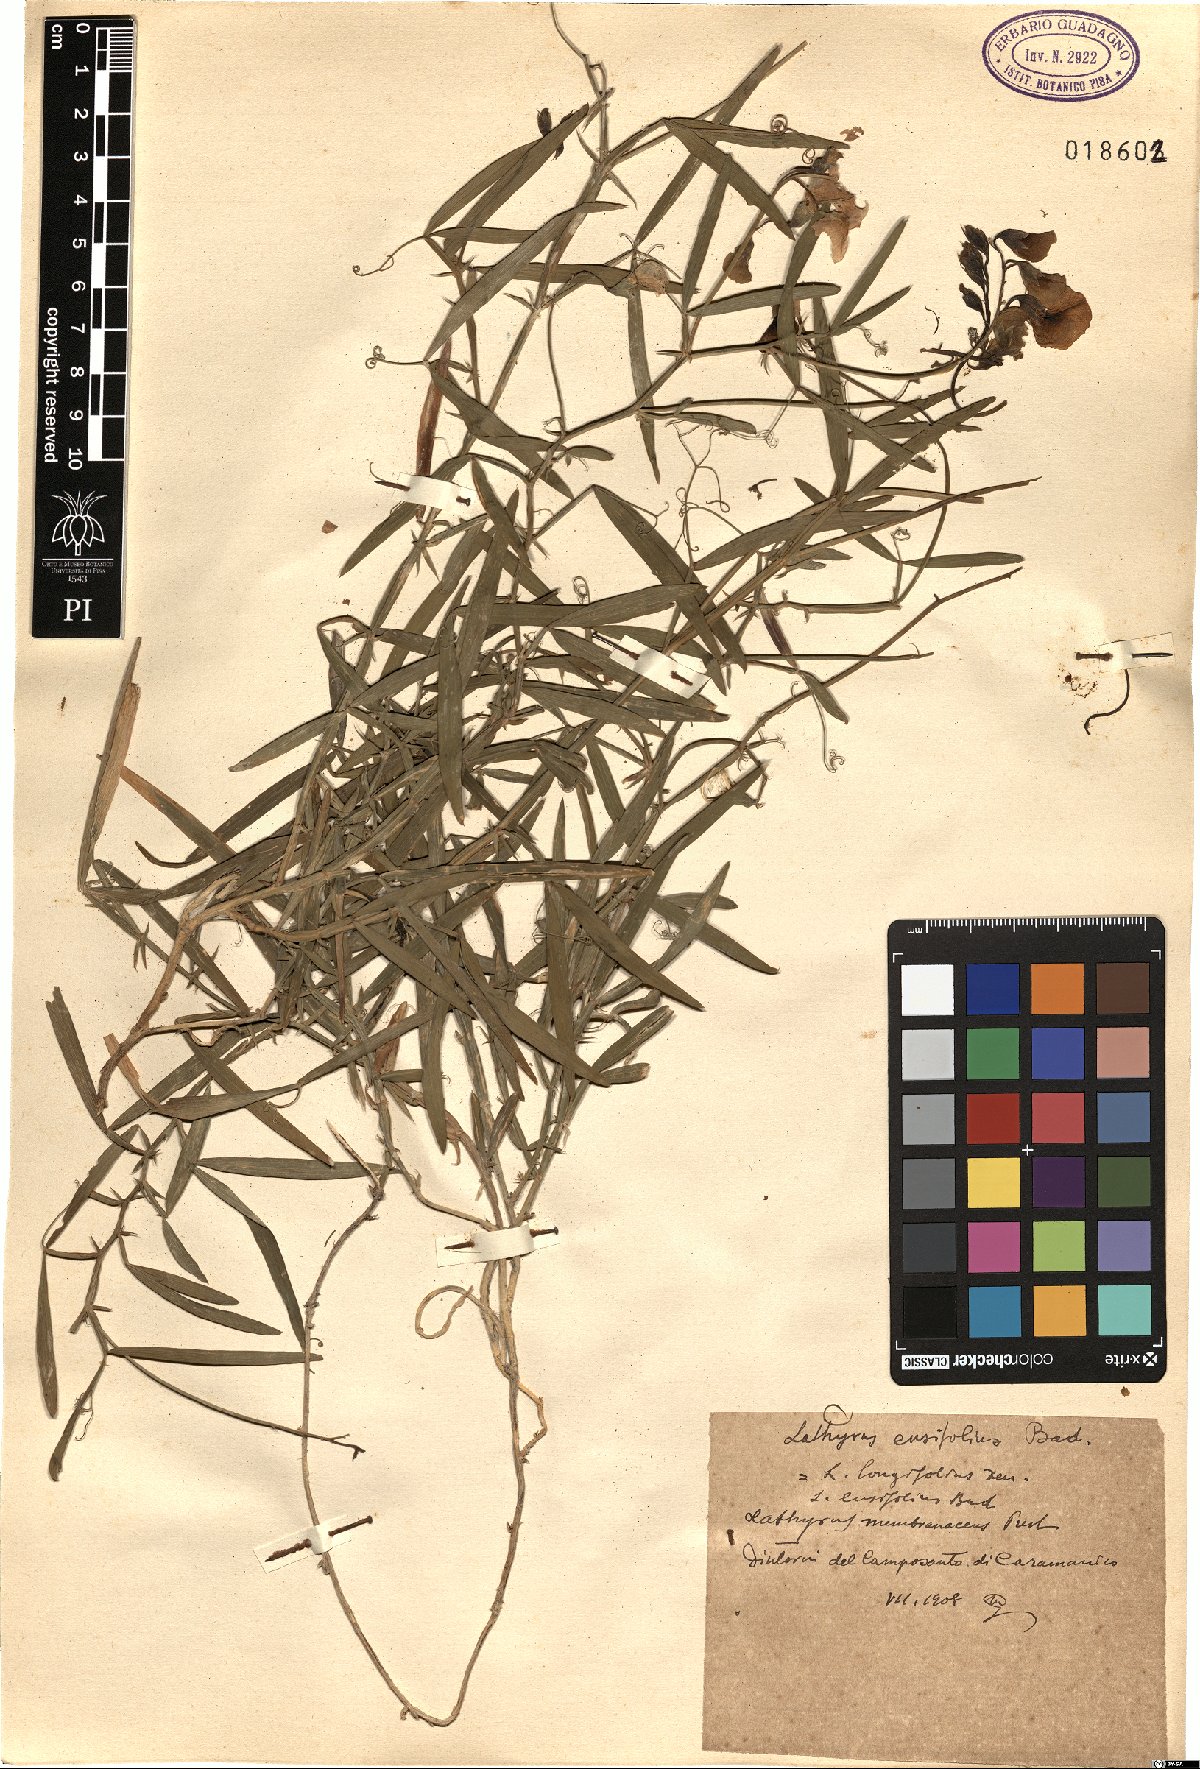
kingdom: Plantae
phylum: Tracheophyta
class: Magnoliopsida
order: Fabales
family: Fabaceae
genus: Lathyrus
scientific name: Lathyrus bauhini
